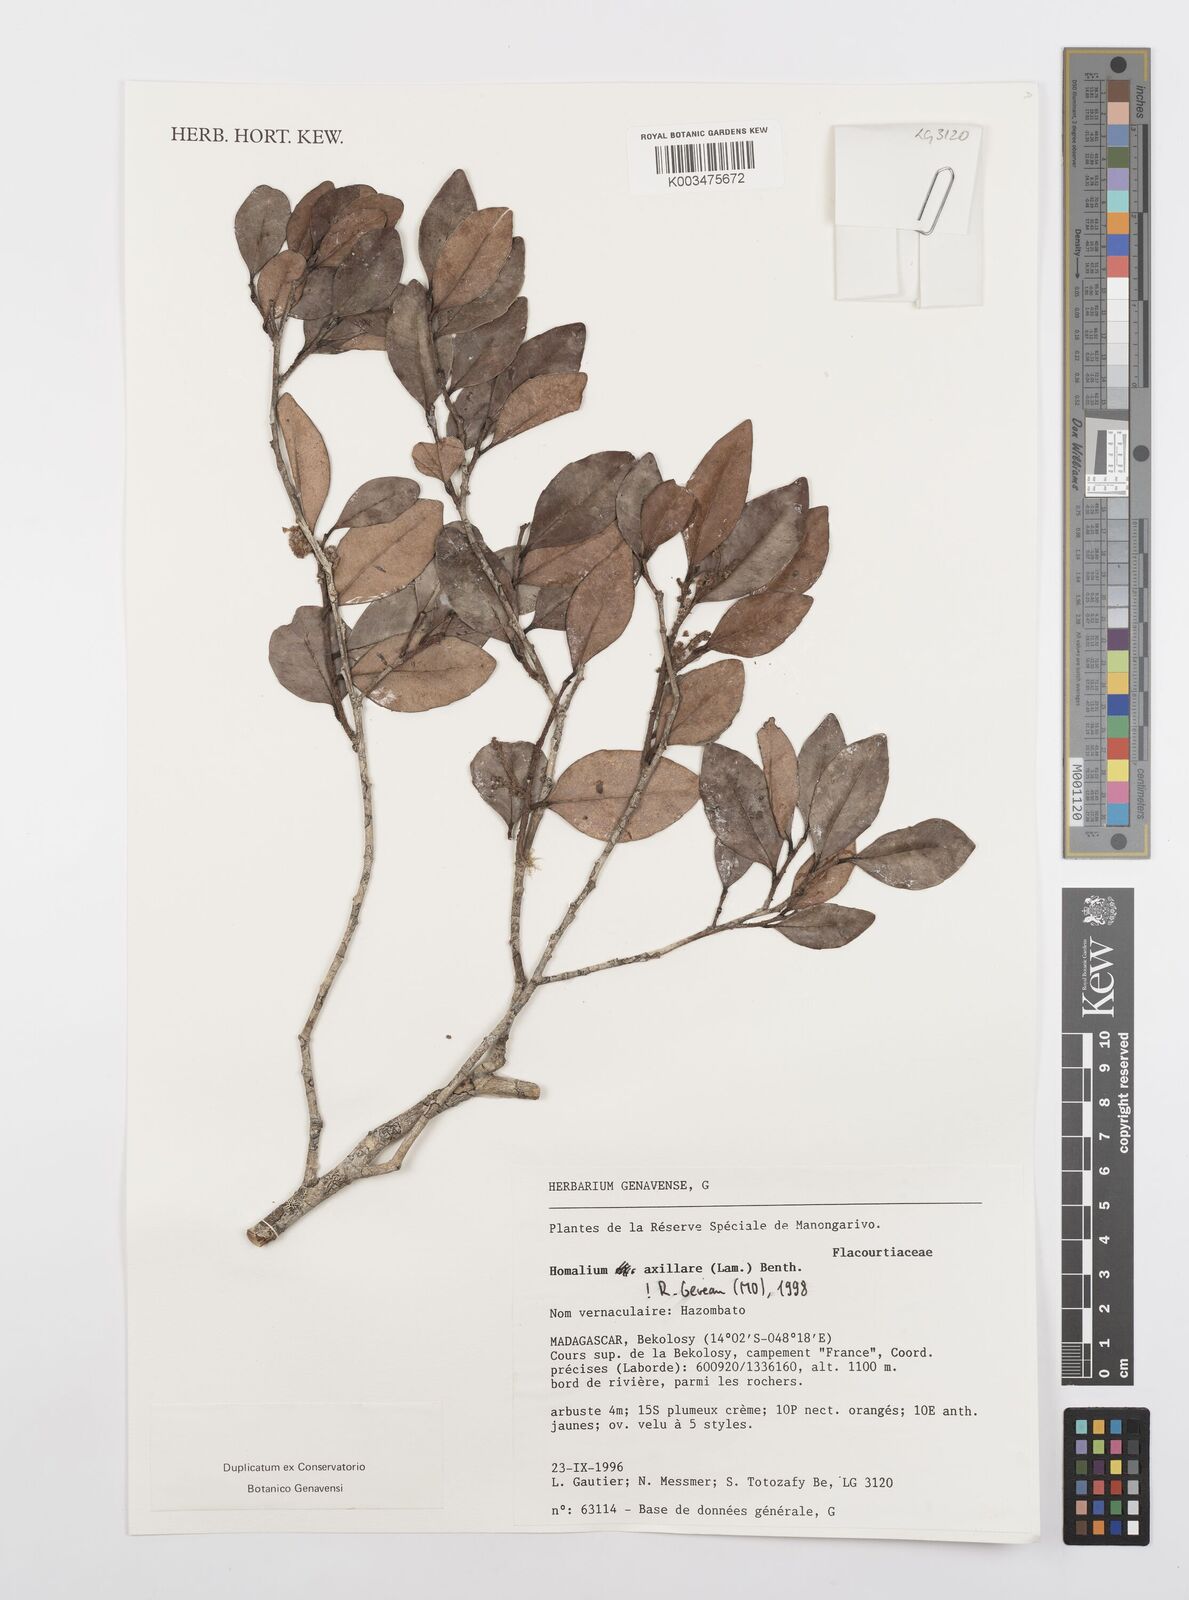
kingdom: Plantae
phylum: Tracheophyta
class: Magnoliopsida
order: Malpighiales
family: Salicaceae
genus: Homalium
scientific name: Homalium axillare
